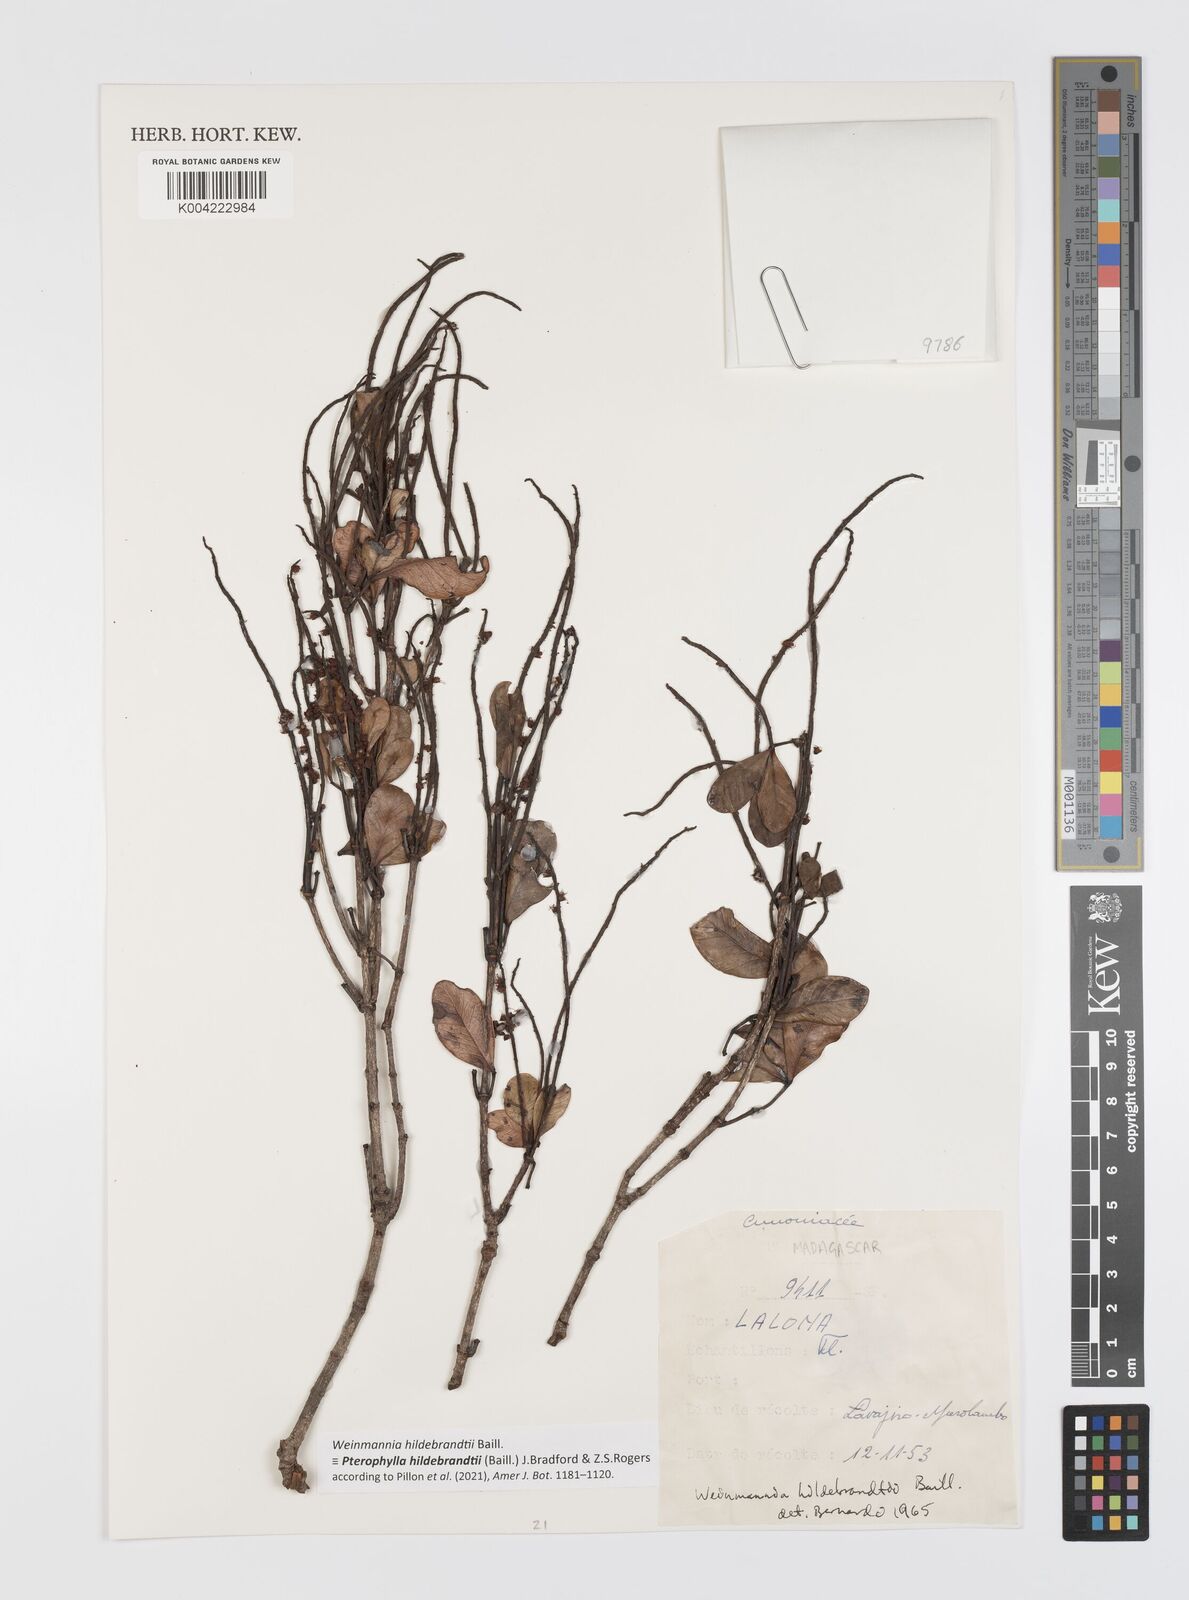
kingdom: Plantae
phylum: Tracheophyta
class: Magnoliopsida
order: Oxalidales
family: Cunoniaceae
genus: Pterophylla
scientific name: Pterophylla hildebrandtii
